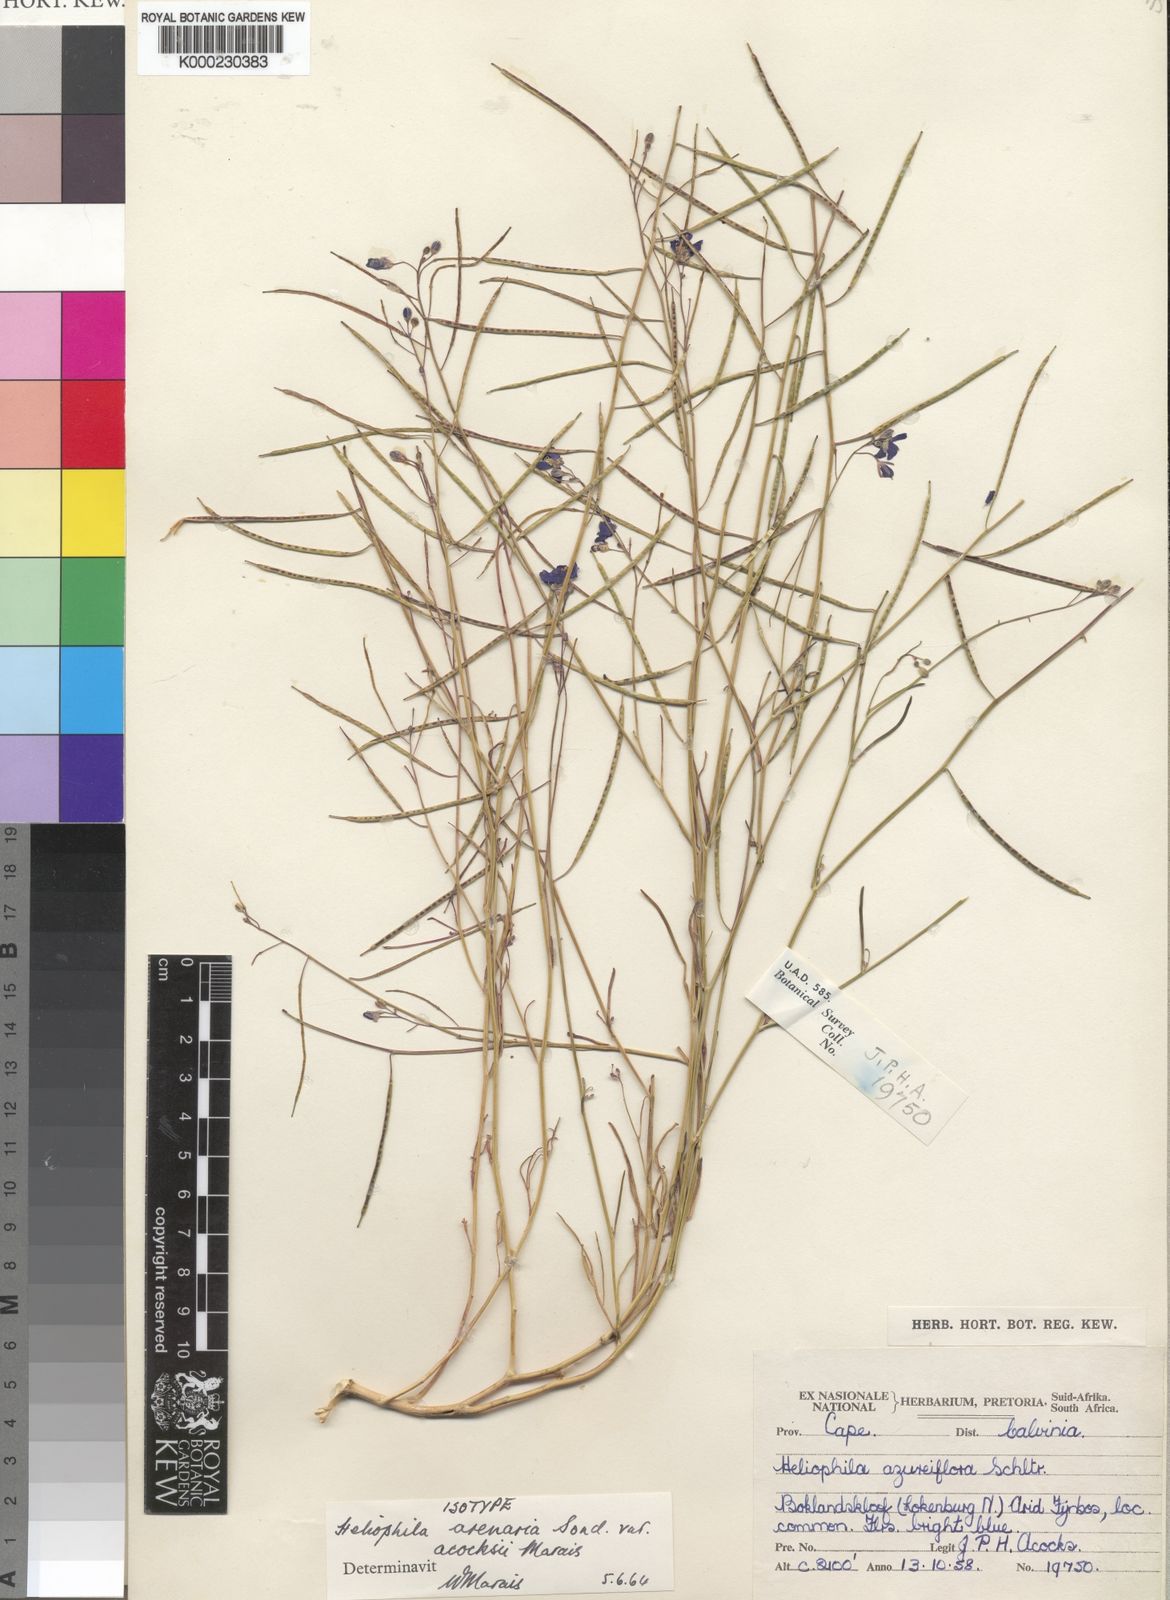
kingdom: Plantae
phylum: Tracheophyta
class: Magnoliopsida
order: Brassicales
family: Brassicaceae
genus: Heliophila
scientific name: Heliophila arenaria
